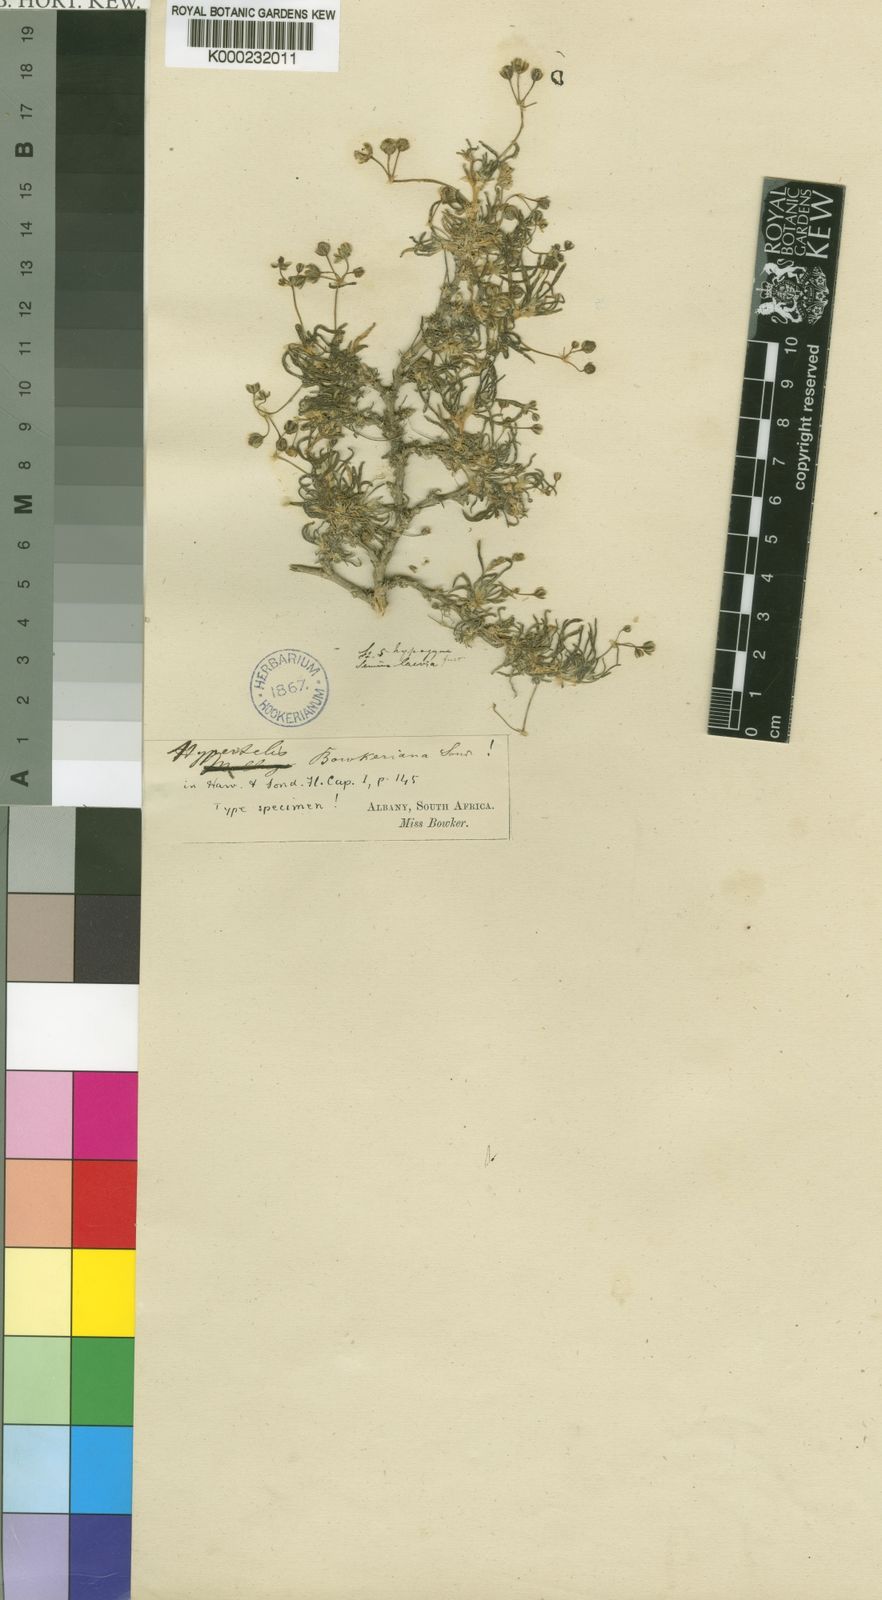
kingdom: Plantae
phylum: Tracheophyta
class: Magnoliopsida
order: Caryophyllales
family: Kewaceae
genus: Kewa
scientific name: Kewa bowkeriana
